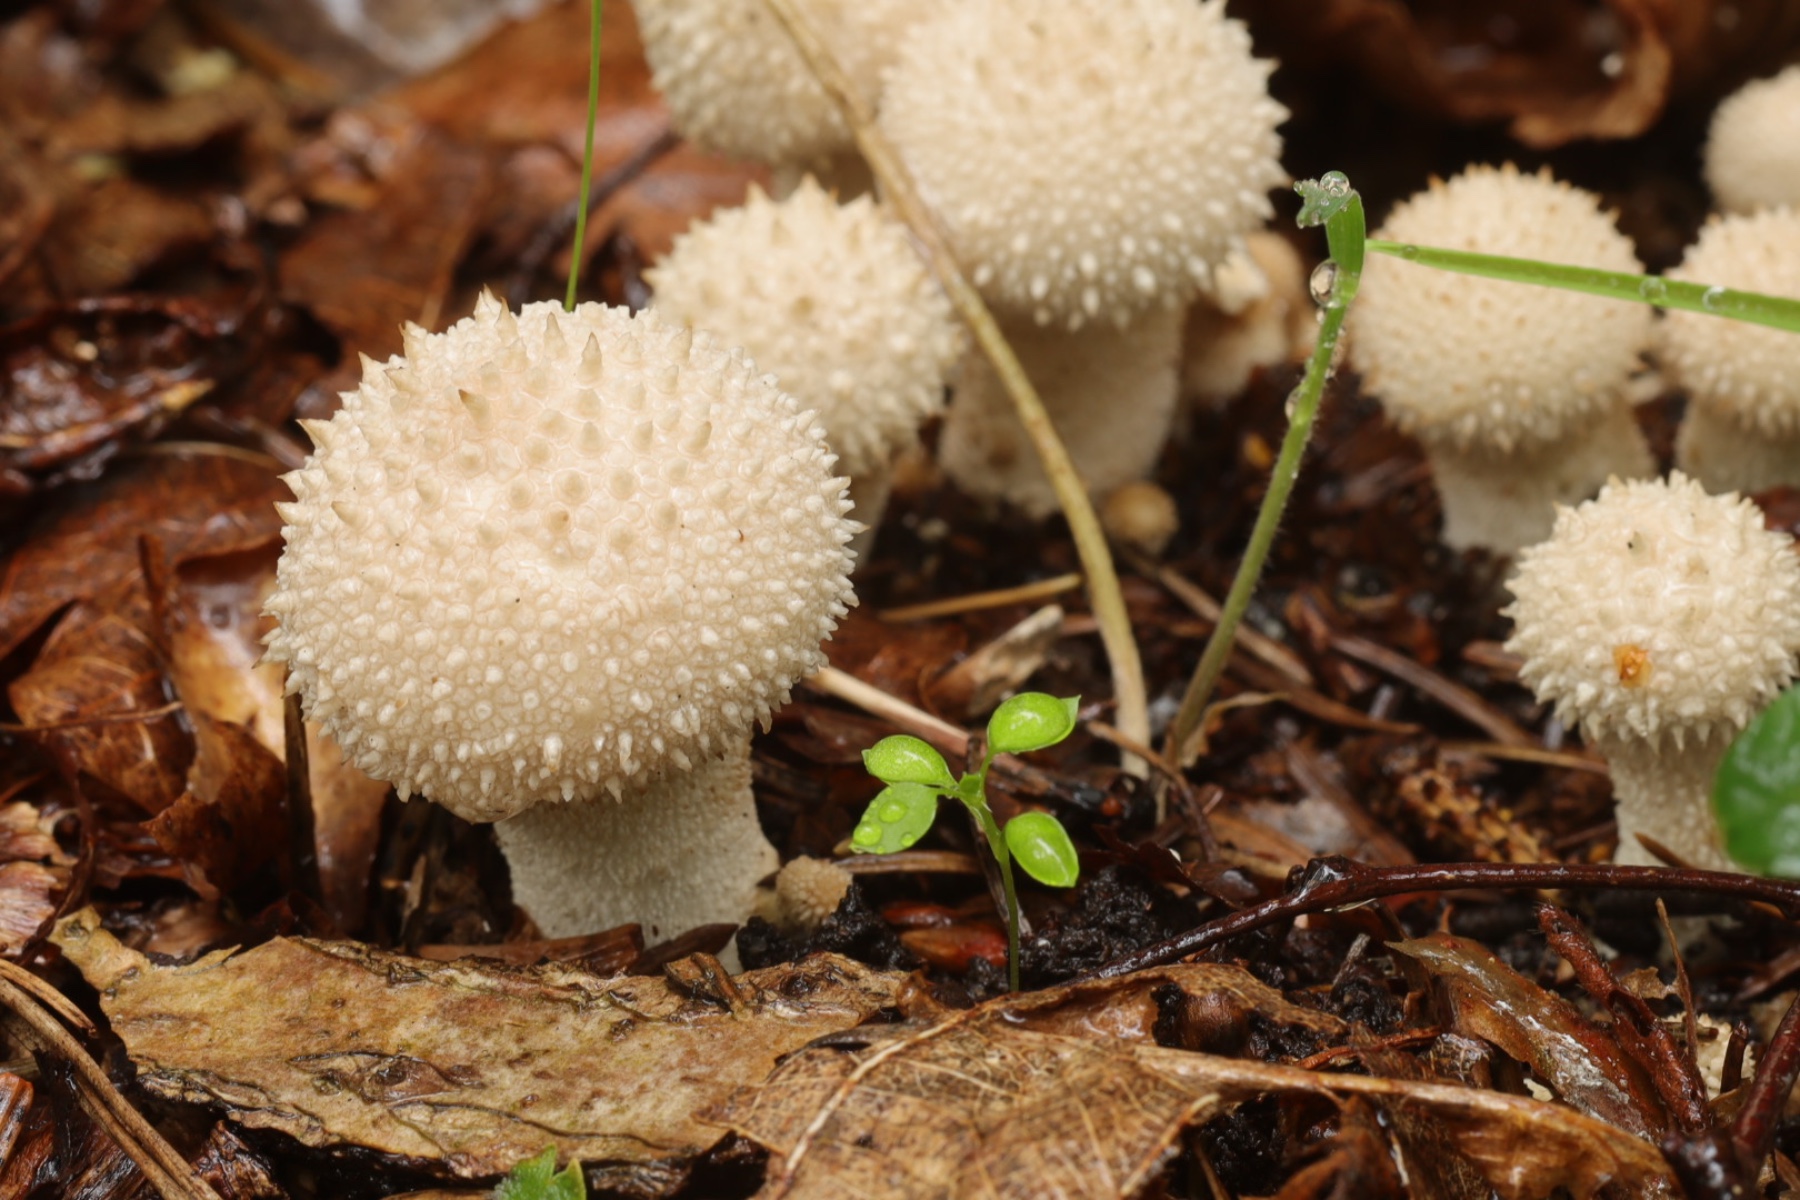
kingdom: Fungi
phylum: Basidiomycota
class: Agaricomycetes
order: Agaricales
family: Lycoperdaceae
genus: Lycoperdon
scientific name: Lycoperdon perlatum
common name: krystal-støvbold
